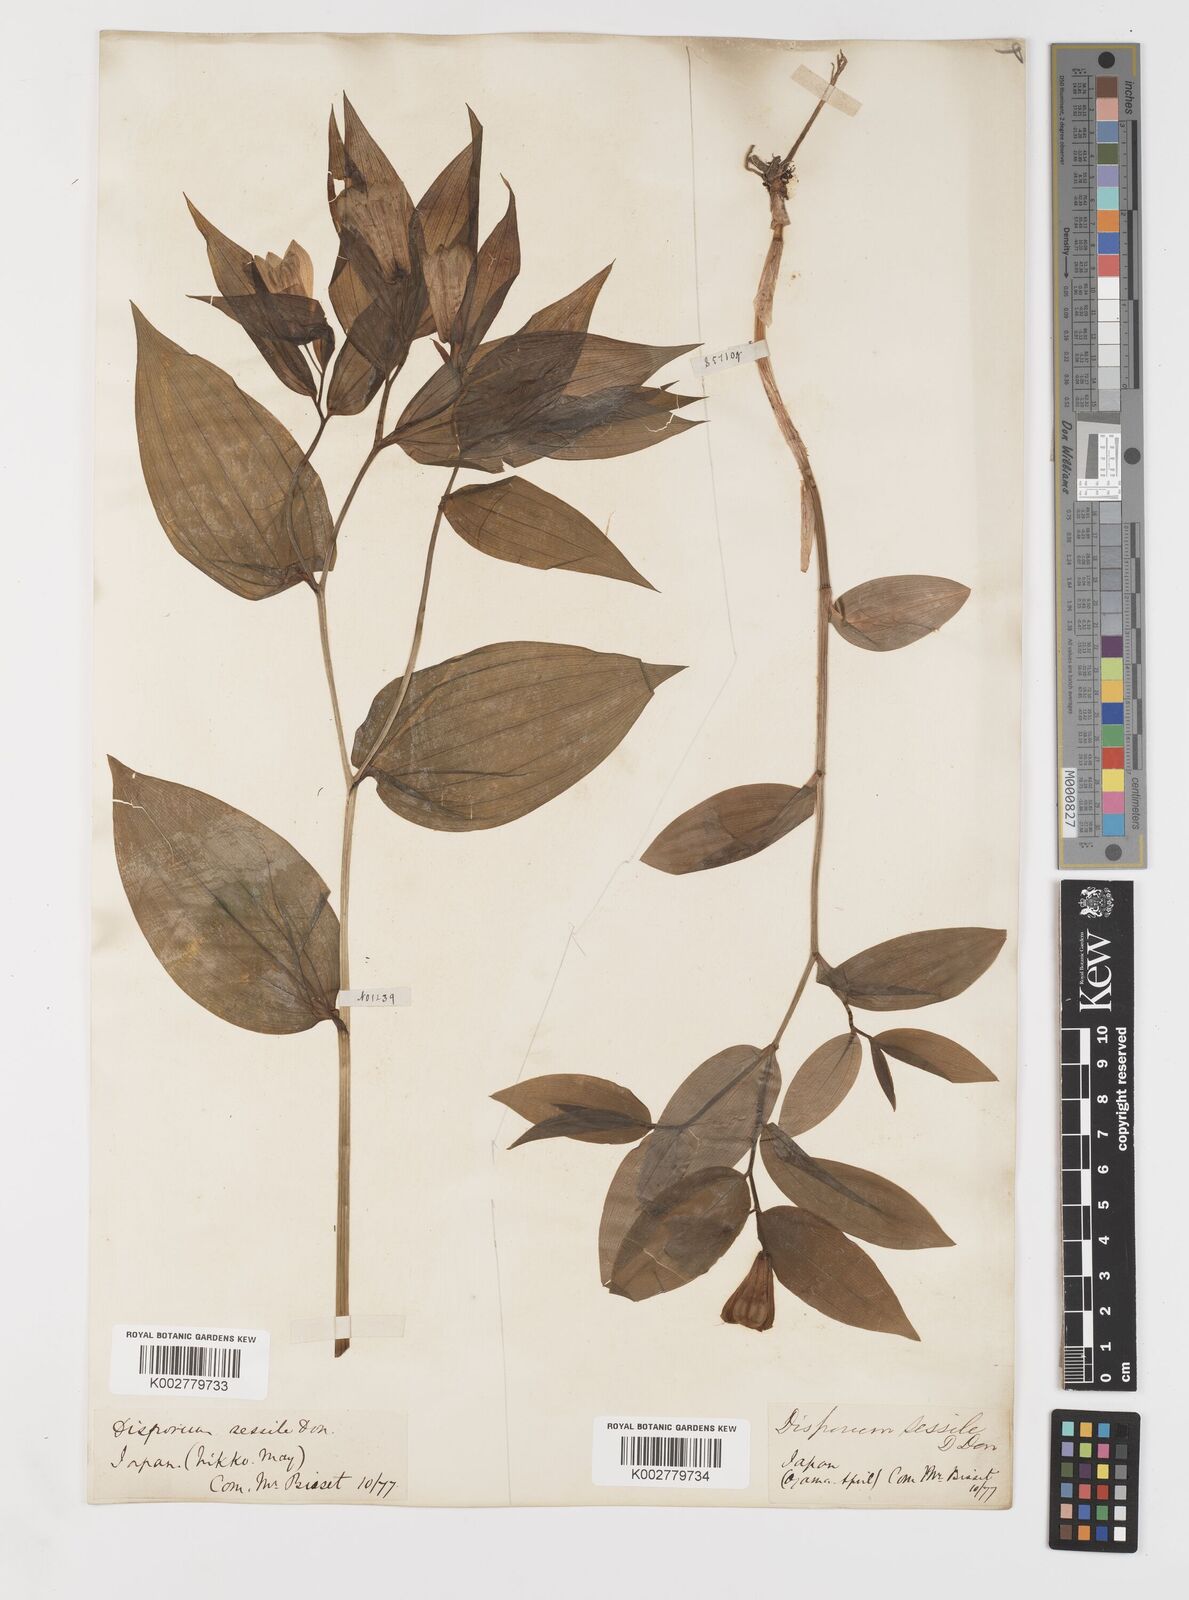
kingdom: Plantae
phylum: Tracheophyta
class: Liliopsida
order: Liliales
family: Colchicaceae
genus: Disporum
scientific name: Disporum sessile
